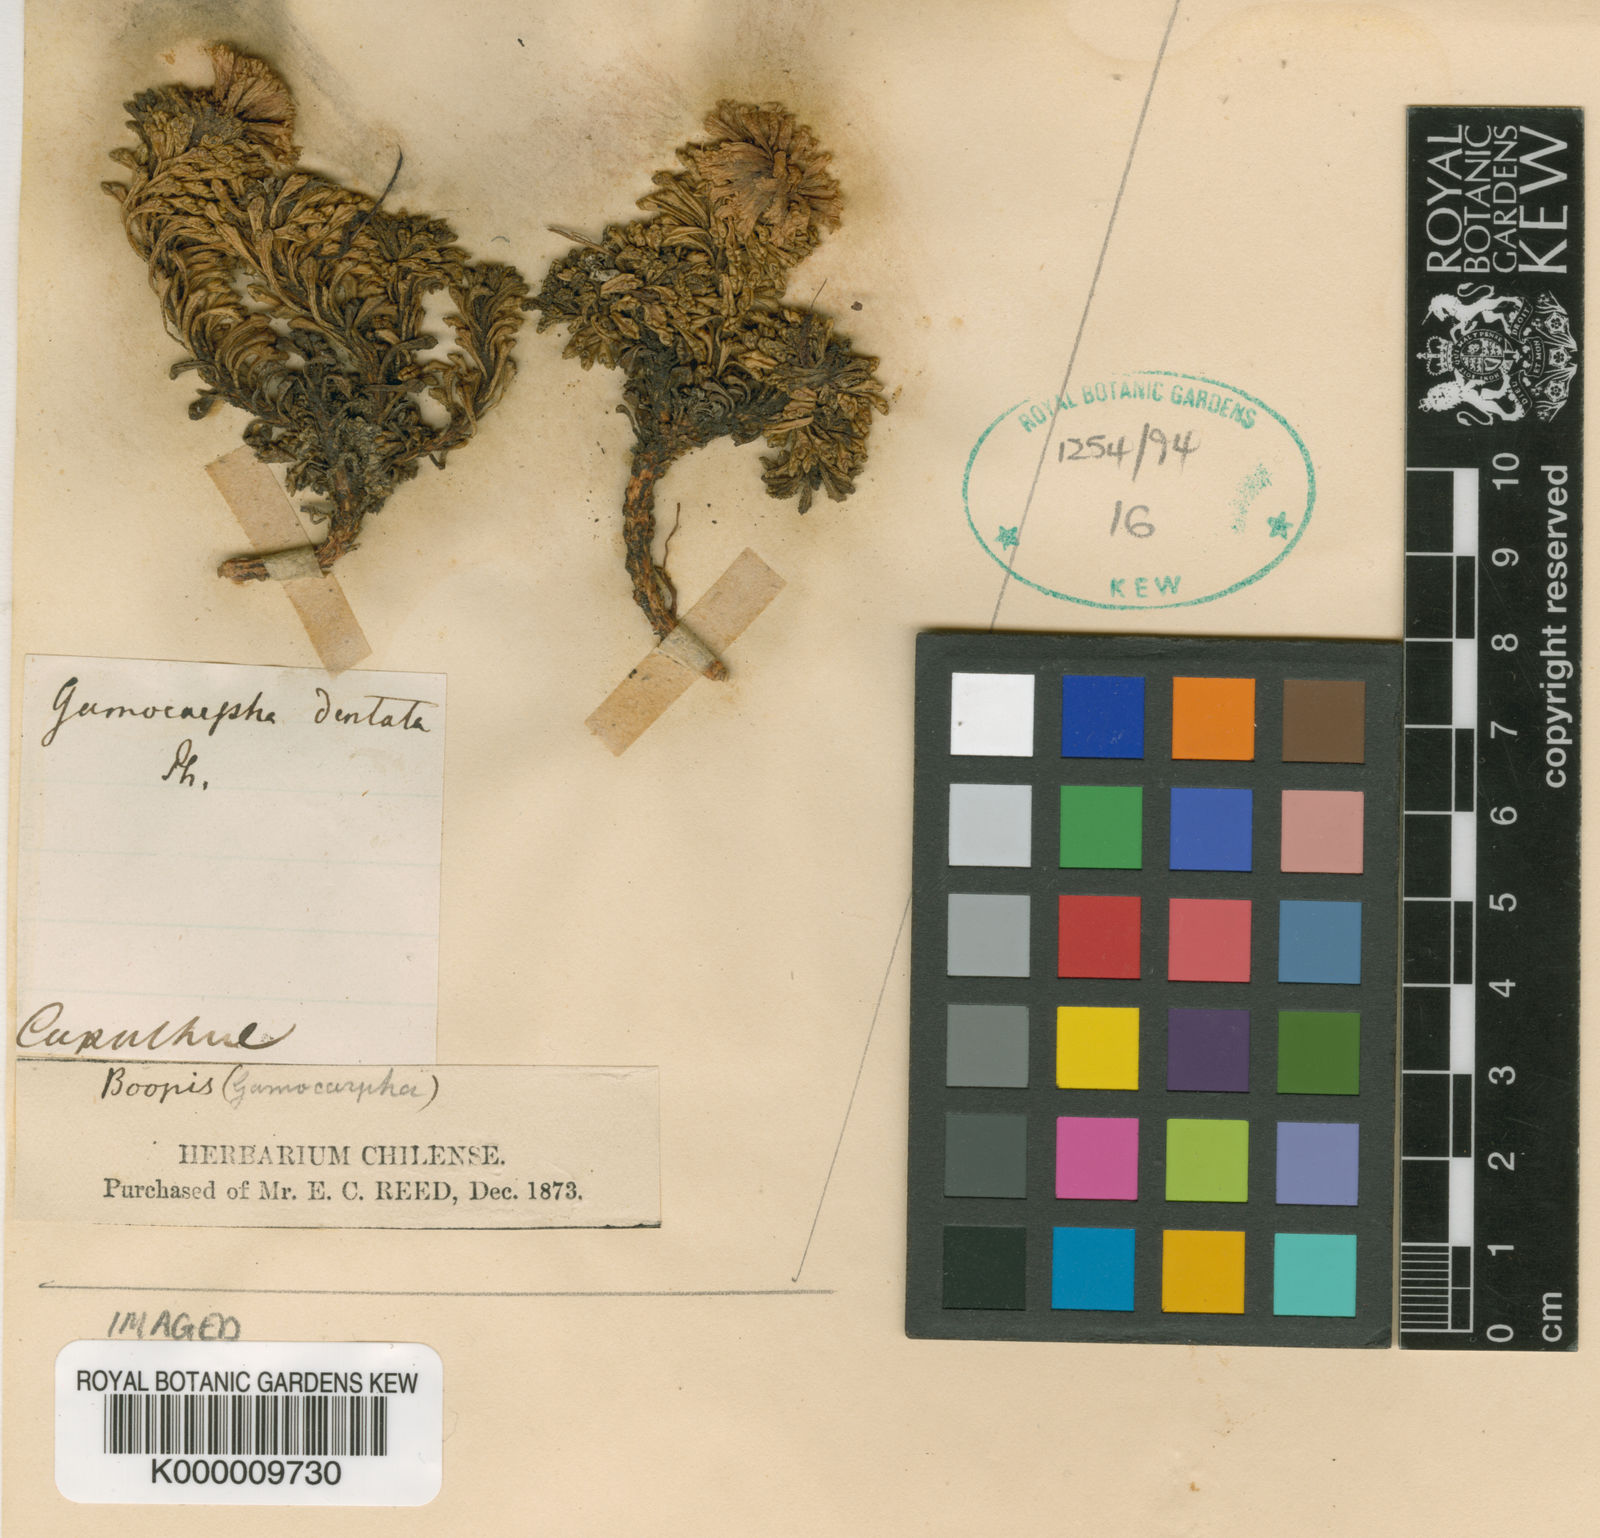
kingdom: Plantae
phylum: Tracheophyta
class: Magnoliopsida
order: Asterales
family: Calyceraceae
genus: Moschopsis
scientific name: Moschopsis dentata
